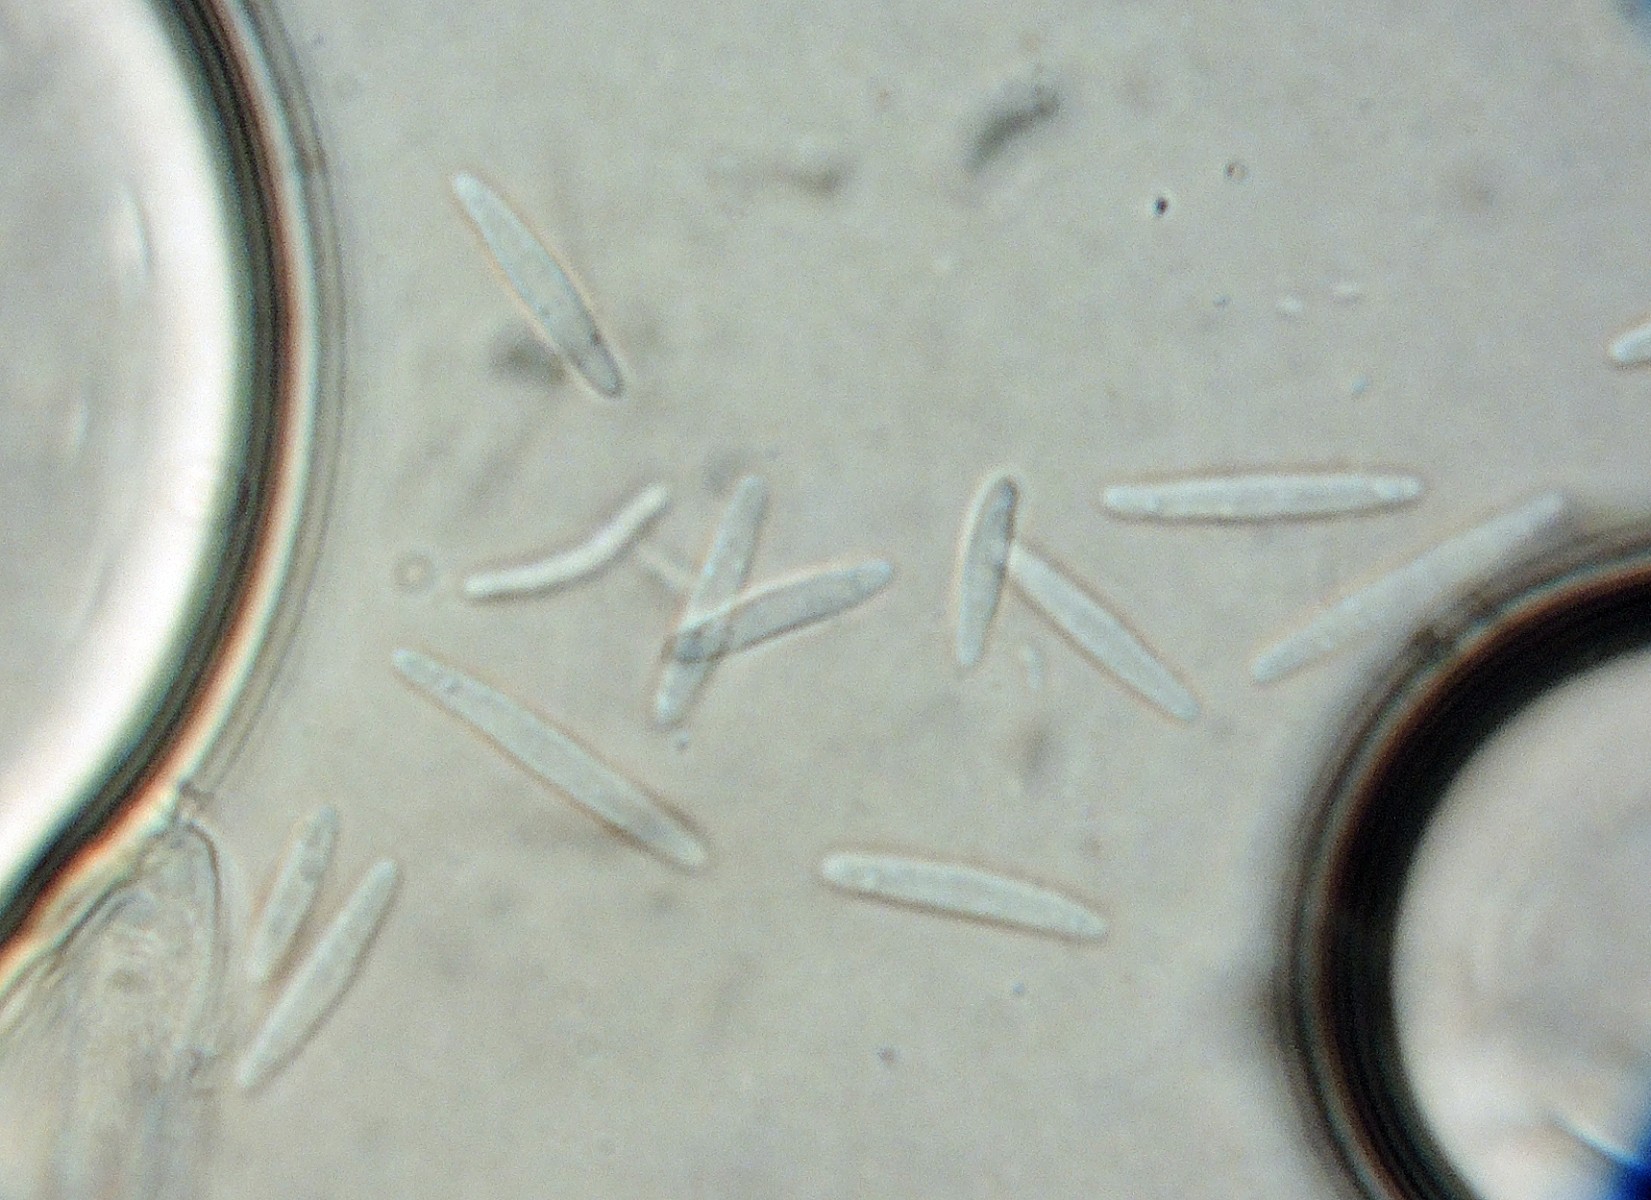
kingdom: Fungi
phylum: Ascomycota
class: Leotiomycetes
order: Helotiales
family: Hyaloscyphaceae
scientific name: Hyaloscyphaceae
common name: frynseskivefamilien
